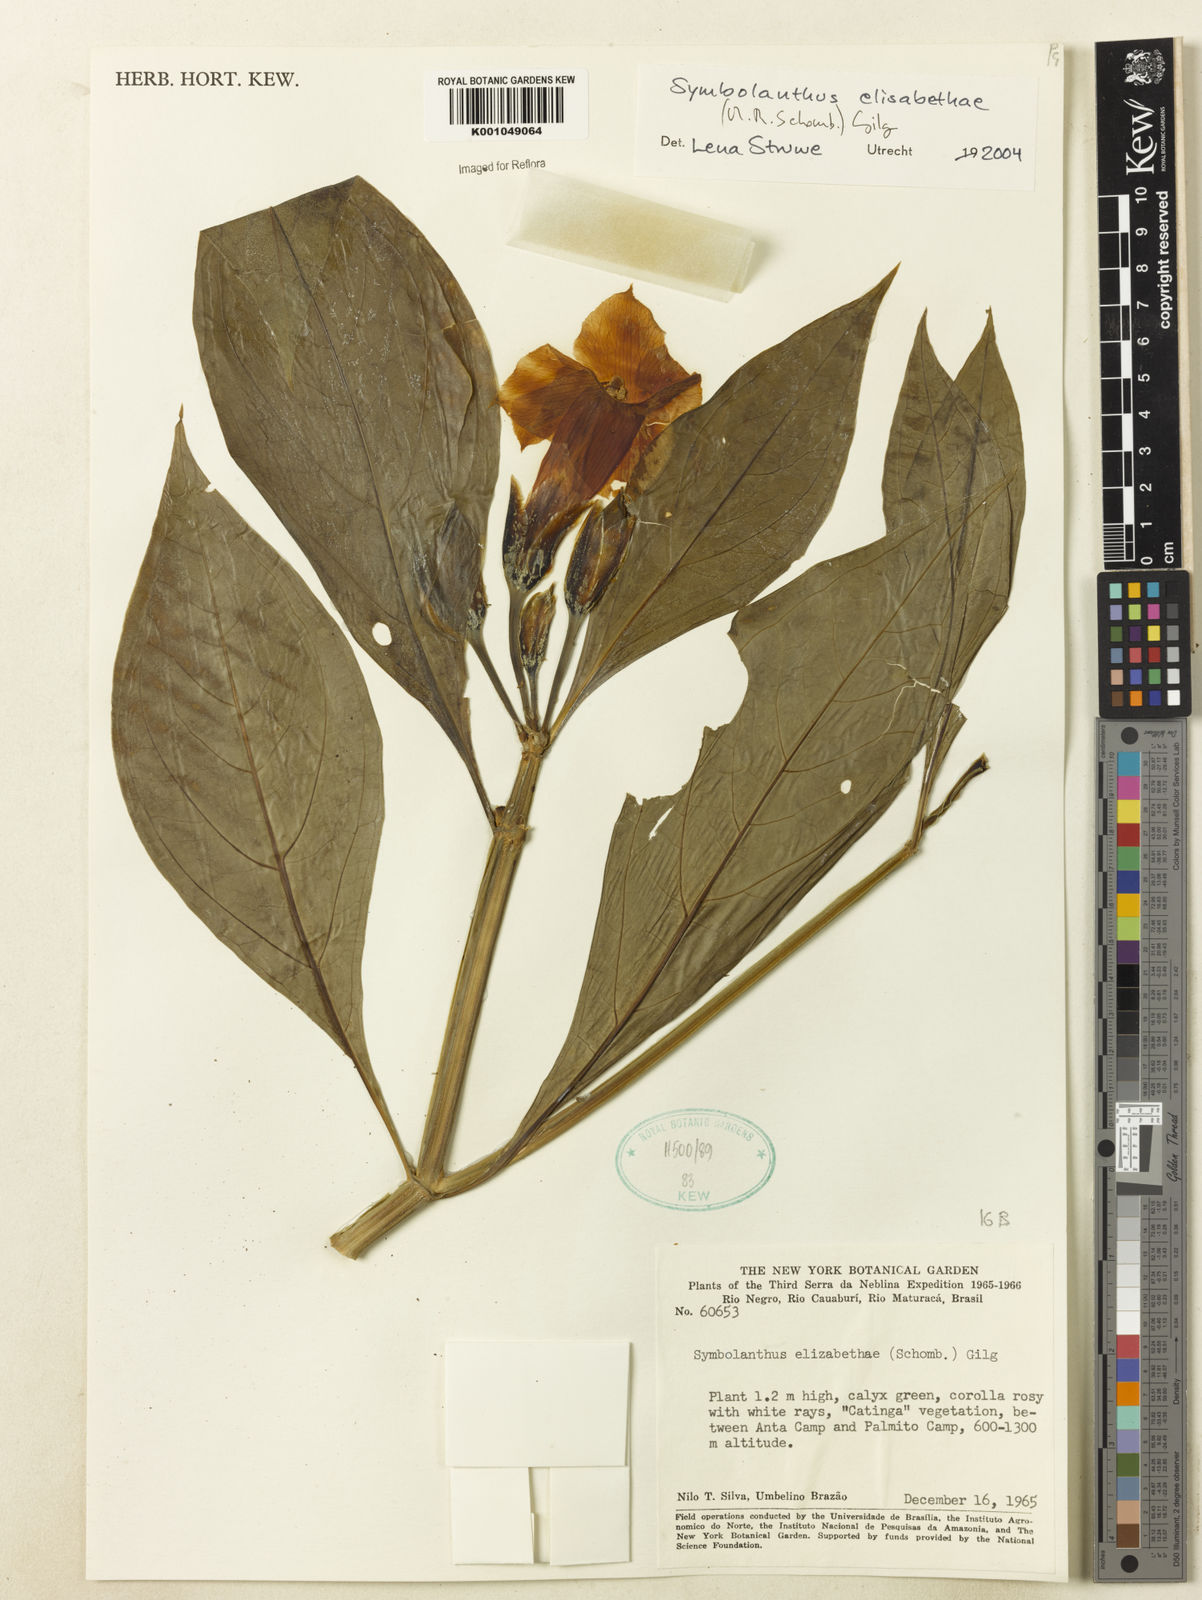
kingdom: Plantae
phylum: Tracheophyta
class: Magnoliopsida
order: Gentianales
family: Gentianaceae
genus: Symbolanthus
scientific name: Symbolanthus elisabethae
